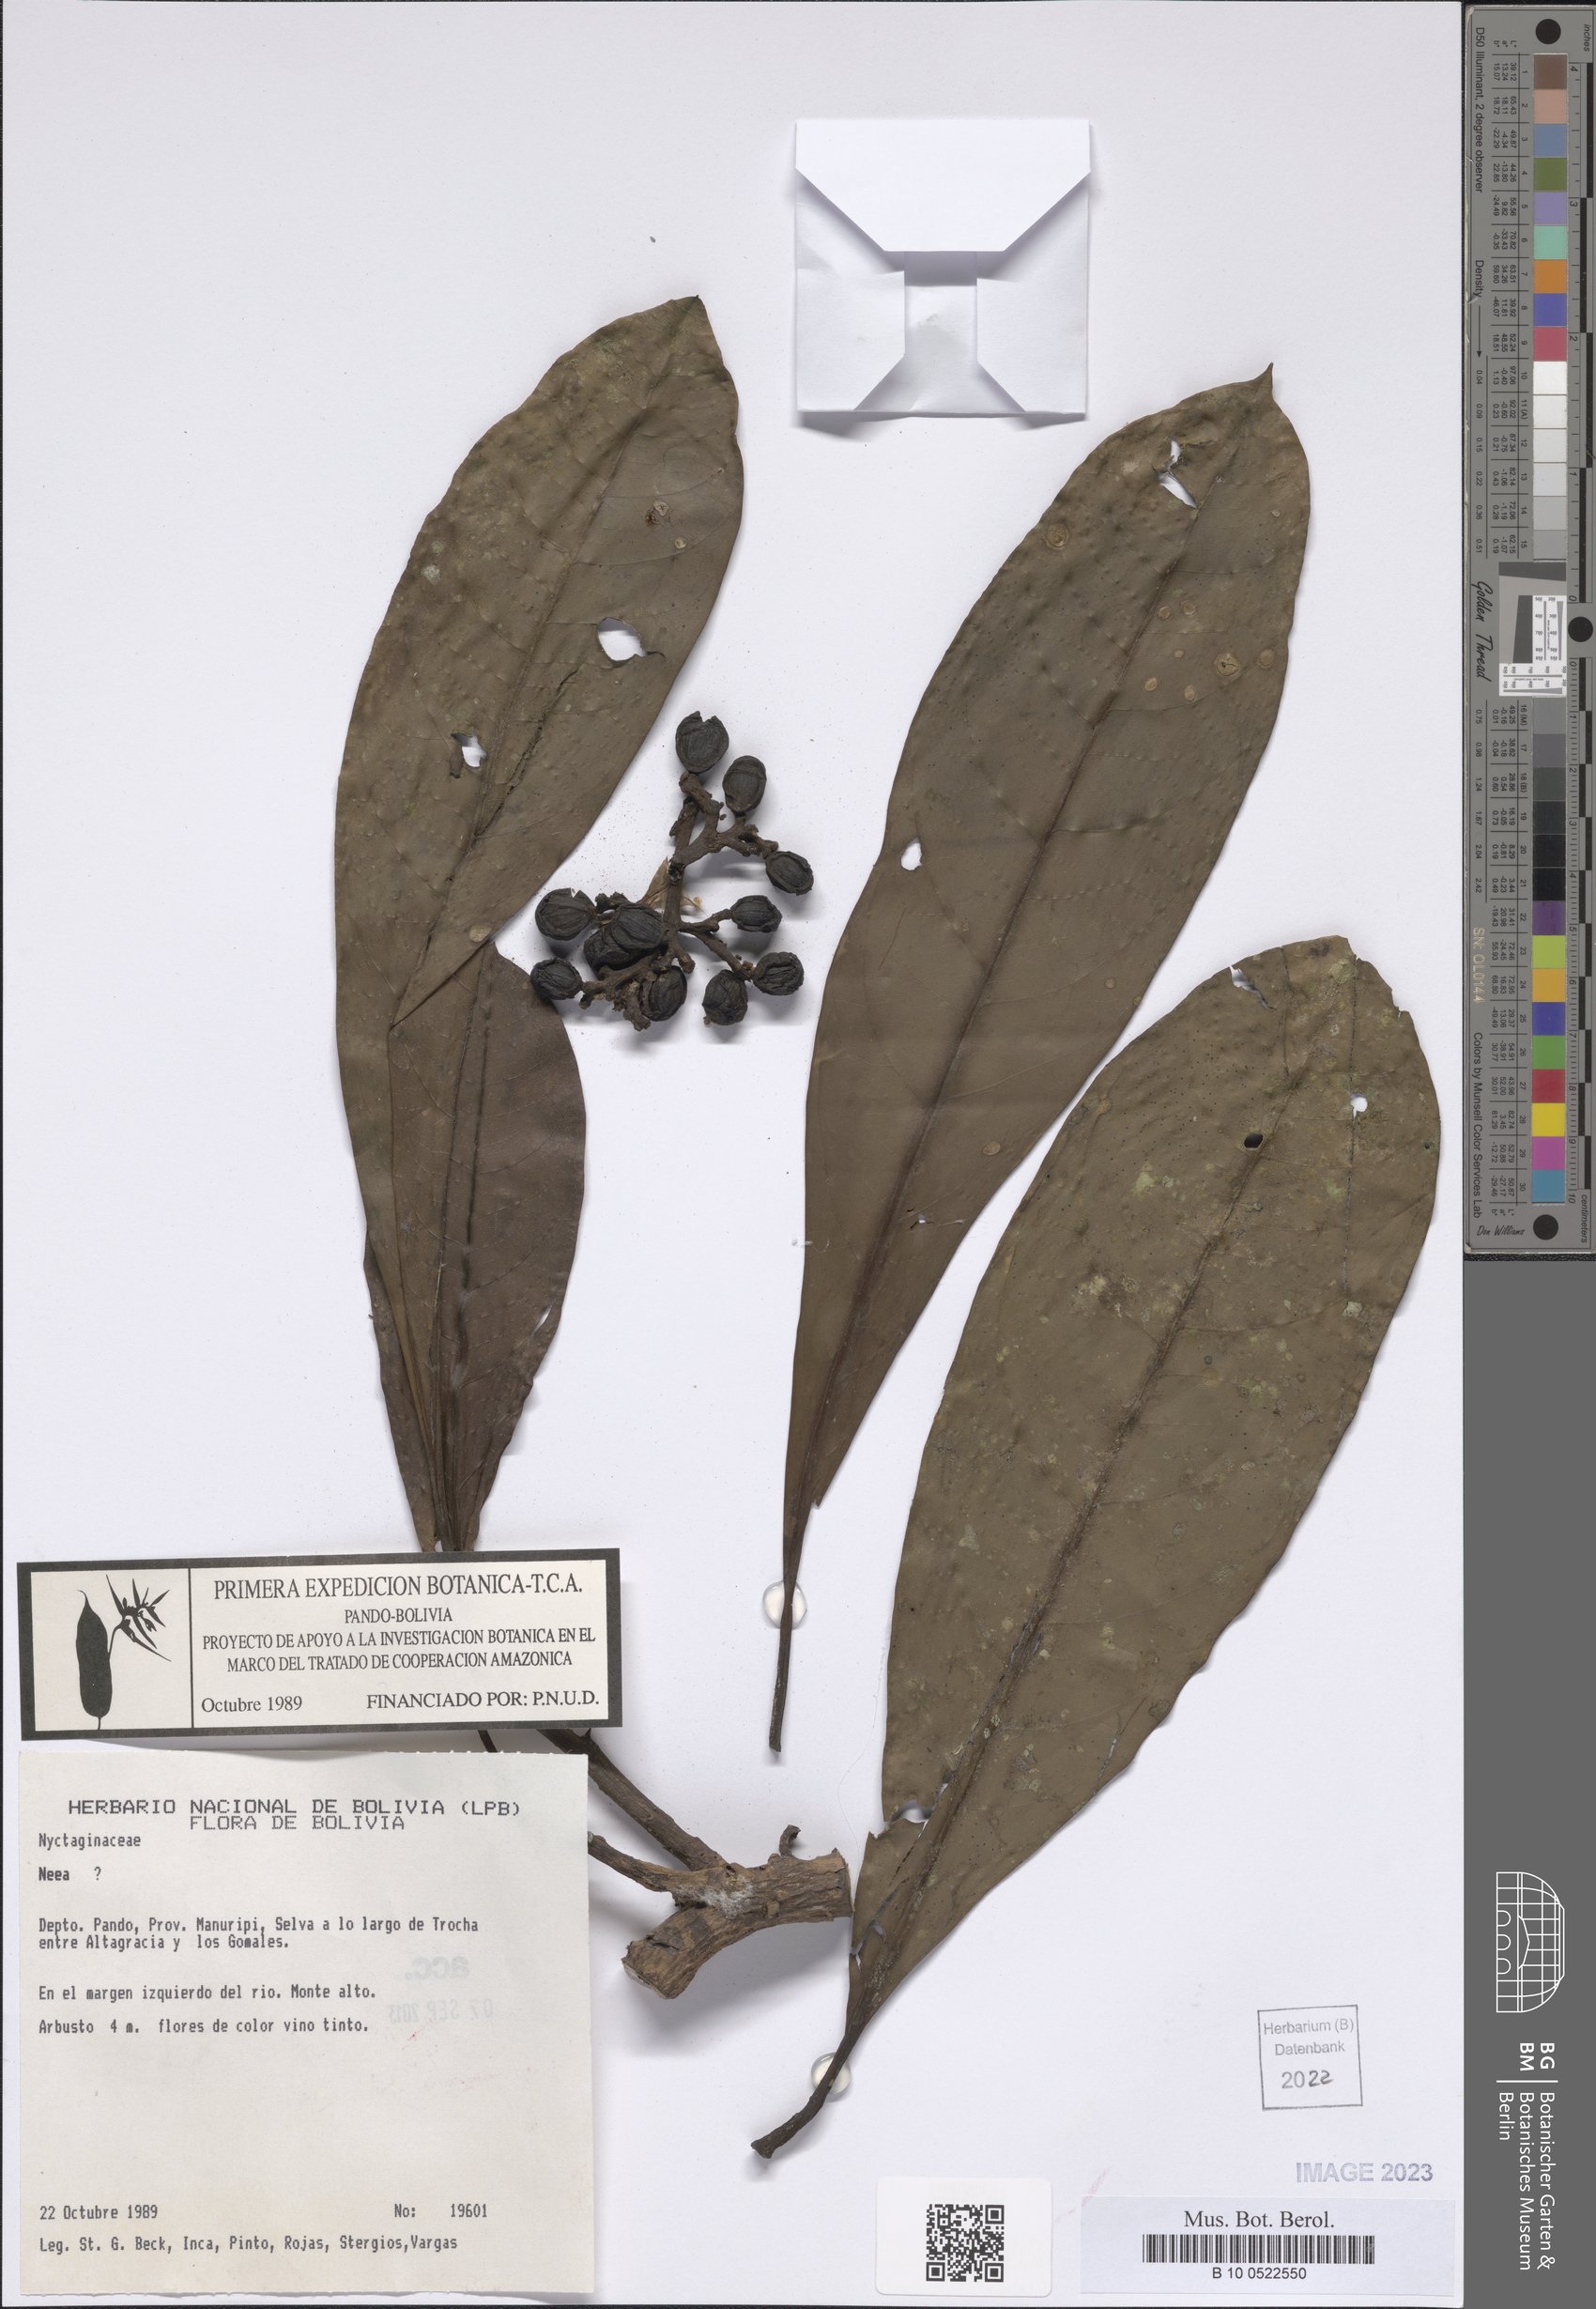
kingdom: Plantae
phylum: Tracheophyta
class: Magnoliopsida
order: Caryophyllales
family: Nyctaginaceae
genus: Neea
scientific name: Neea
